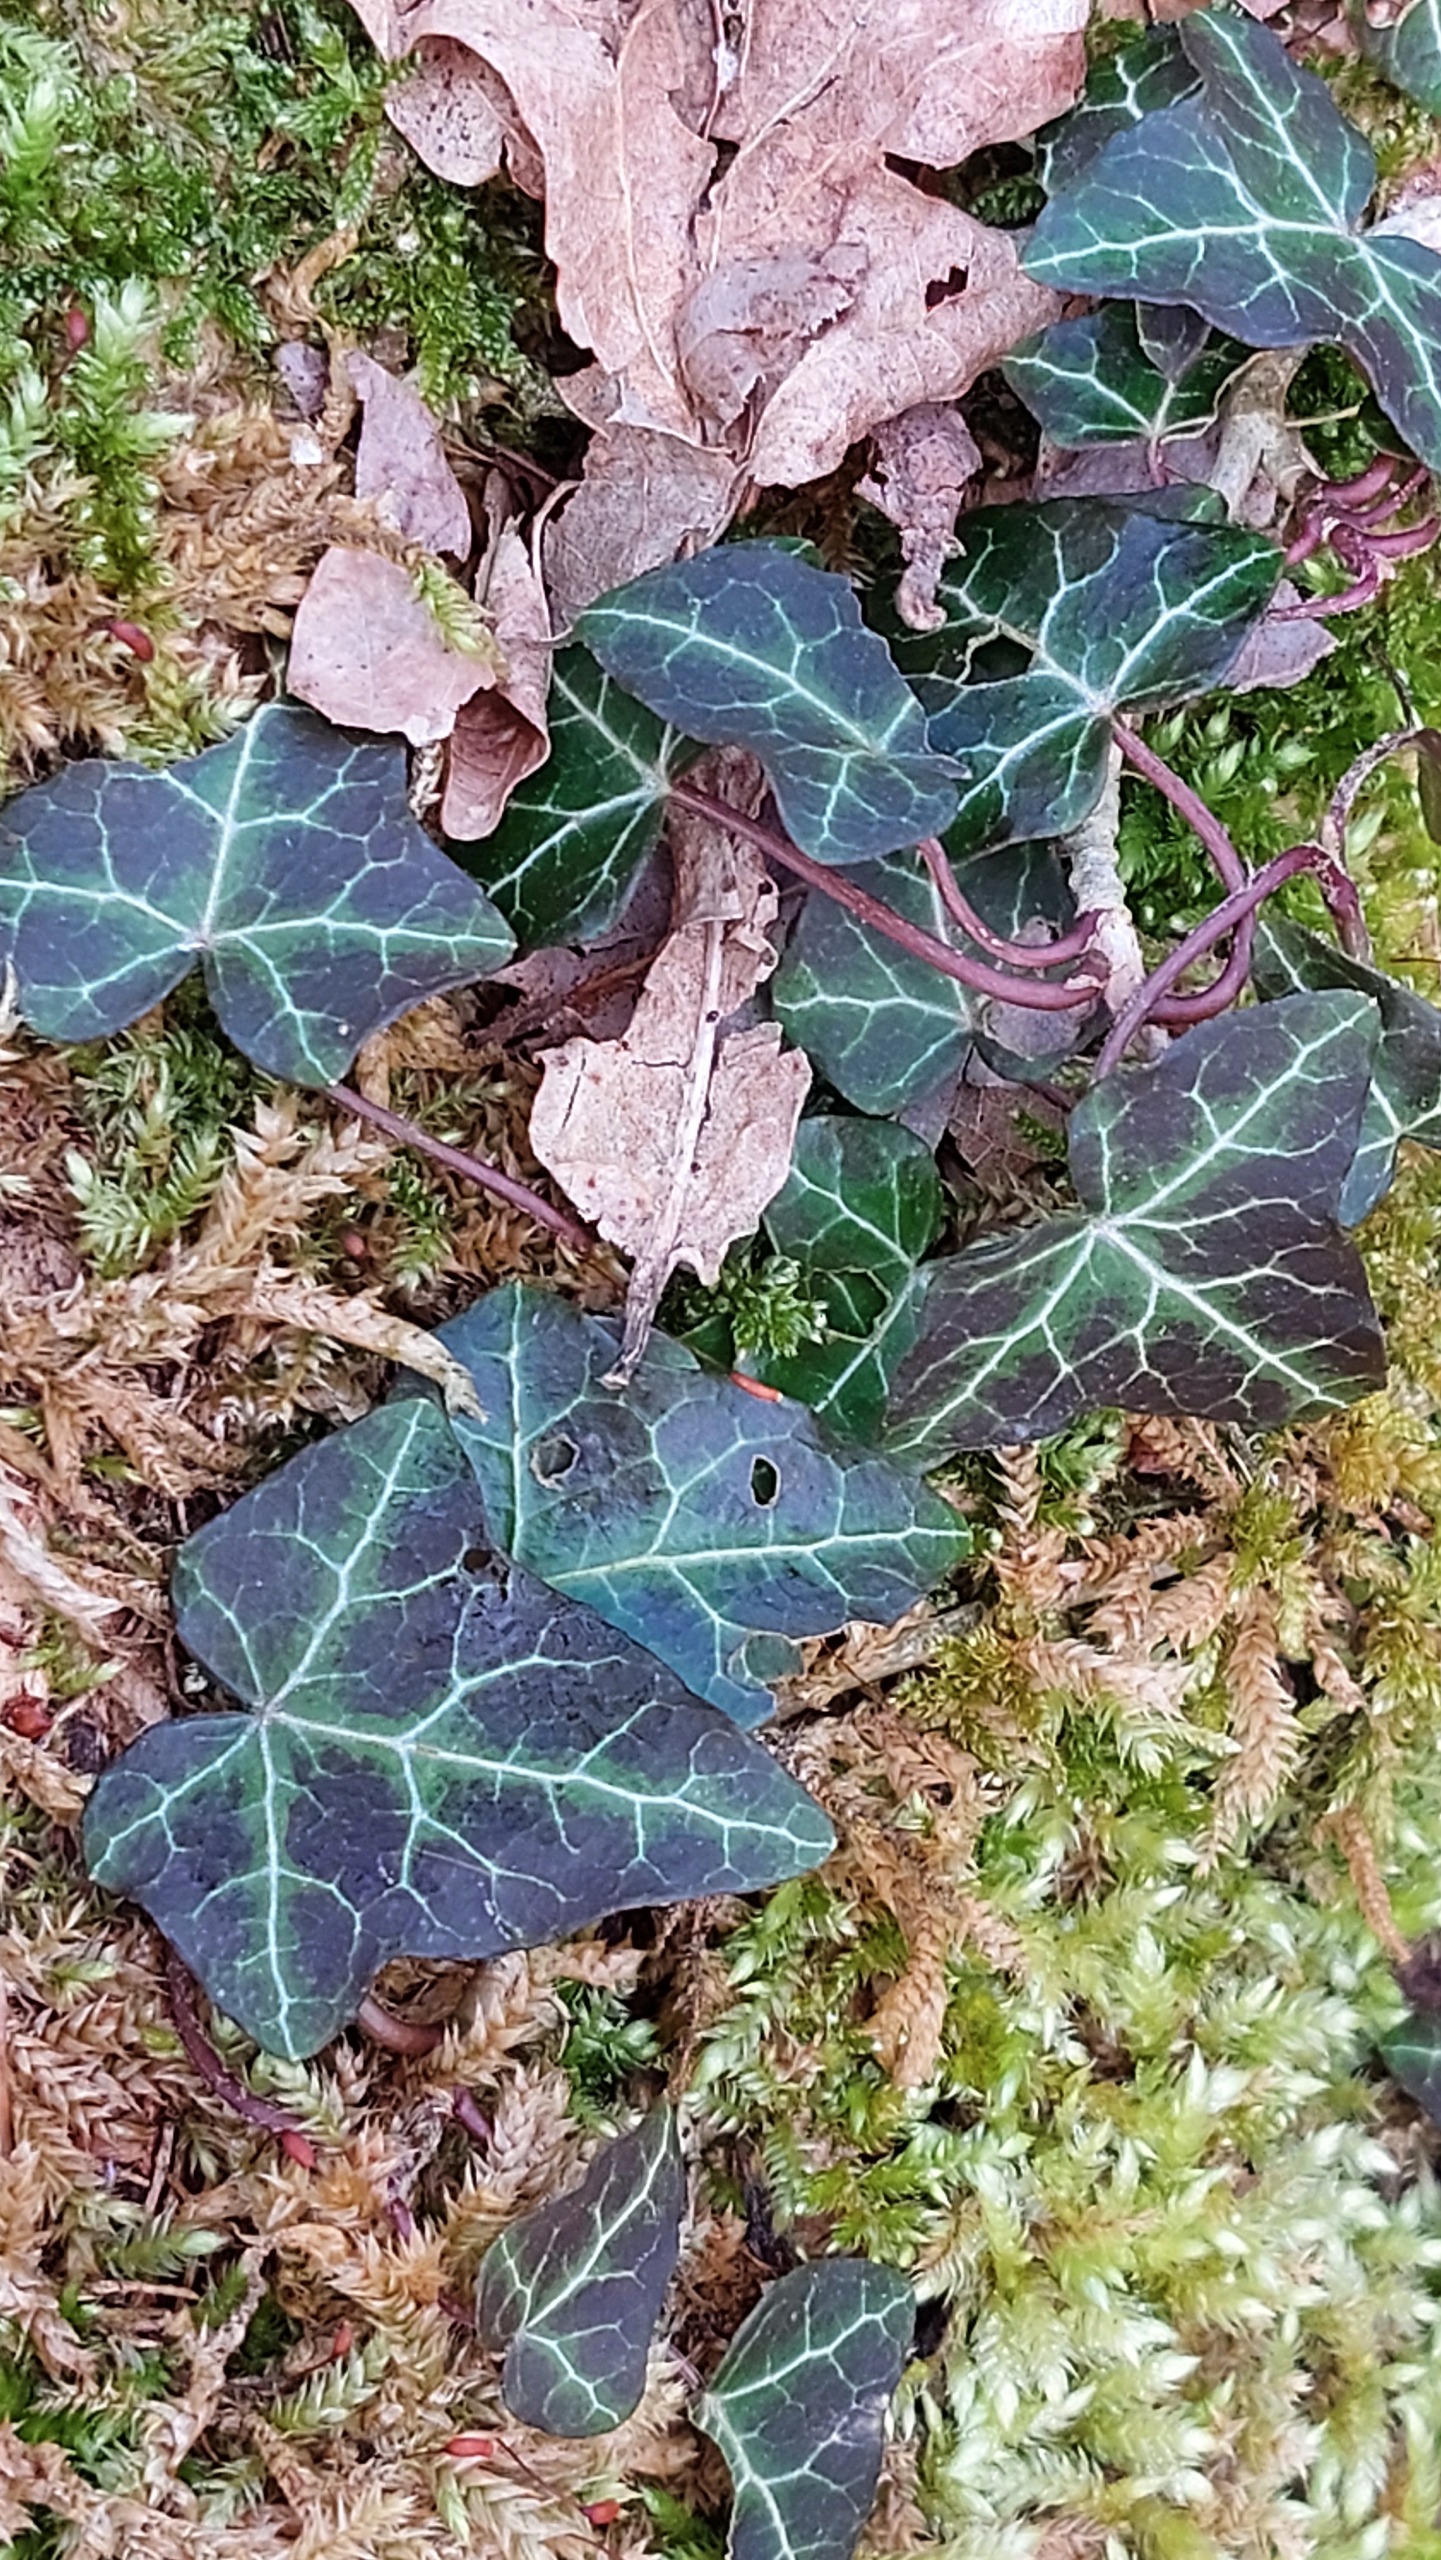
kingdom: Plantae
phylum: Tracheophyta
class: Magnoliopsida
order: Apiales
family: Araliaceae
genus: Hedera
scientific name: Hedera helix
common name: Vedbend
